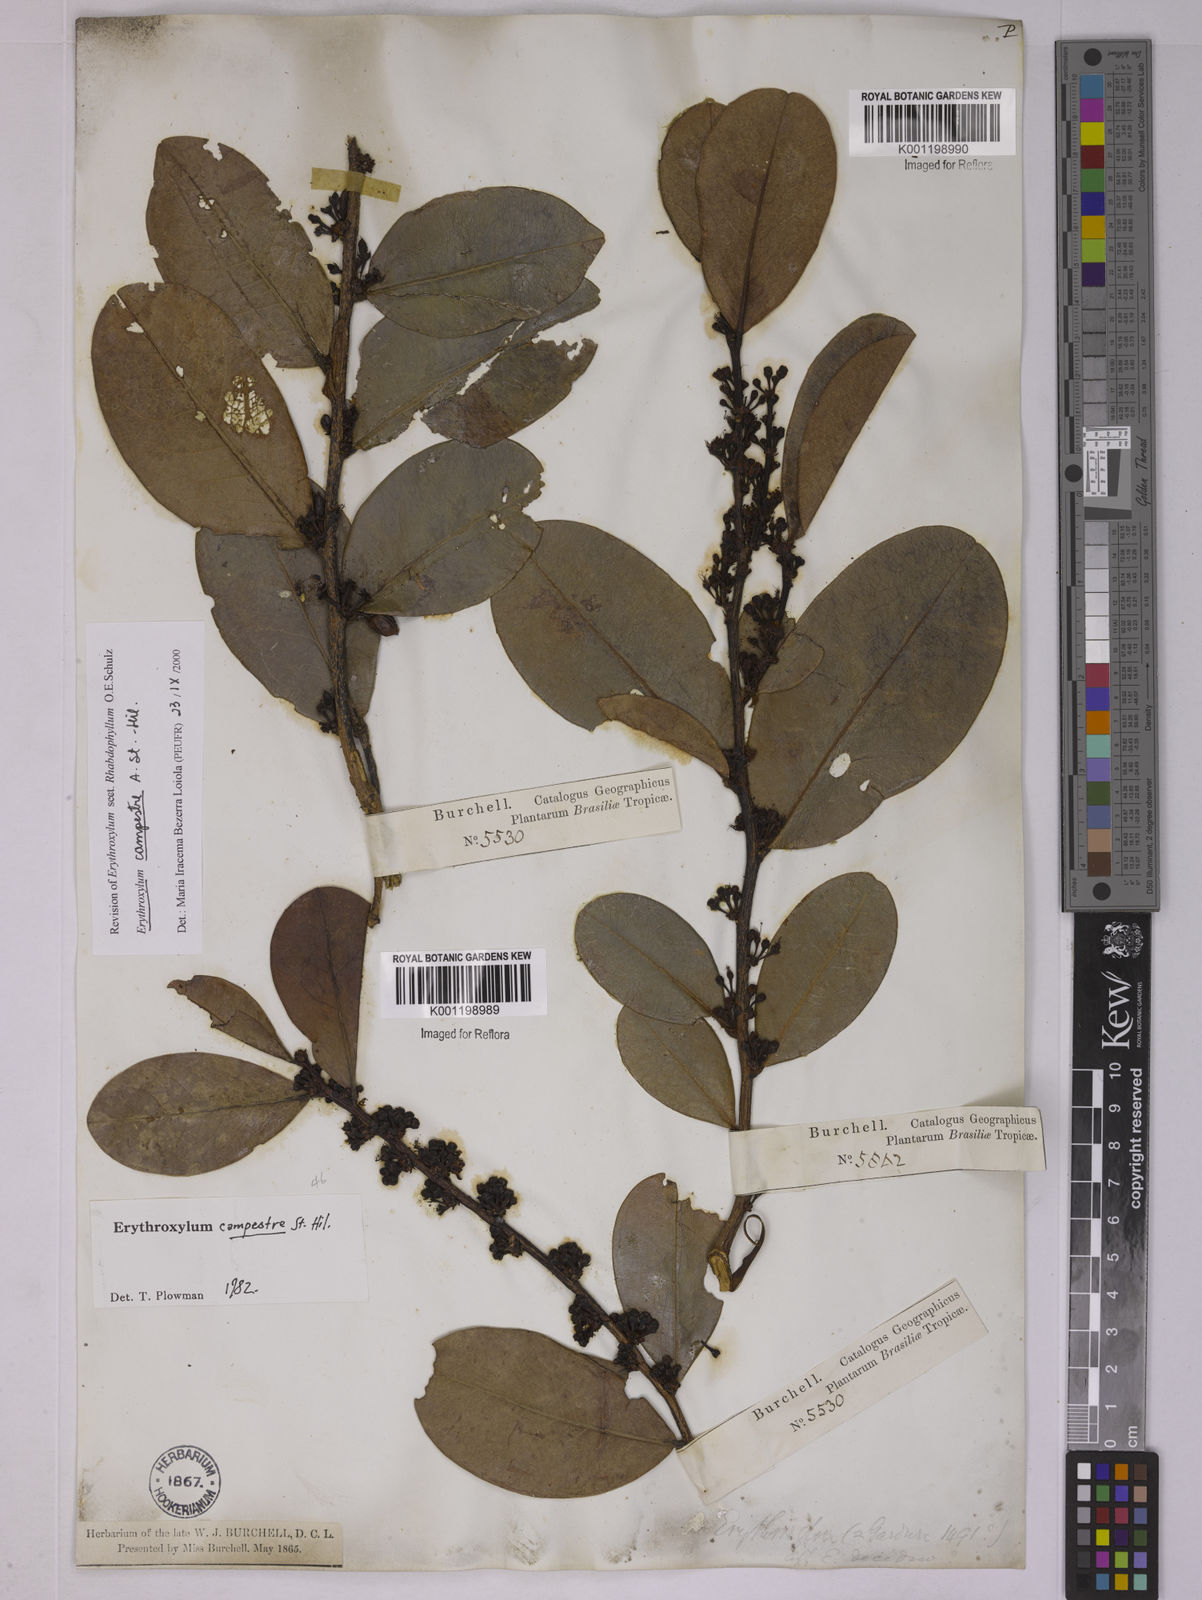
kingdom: Plantae
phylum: Tracheophyta
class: Magnoliopsida
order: Malpighiales
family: Erythroxylaceae
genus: Erythroxylum
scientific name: Erythroxylum campestre
